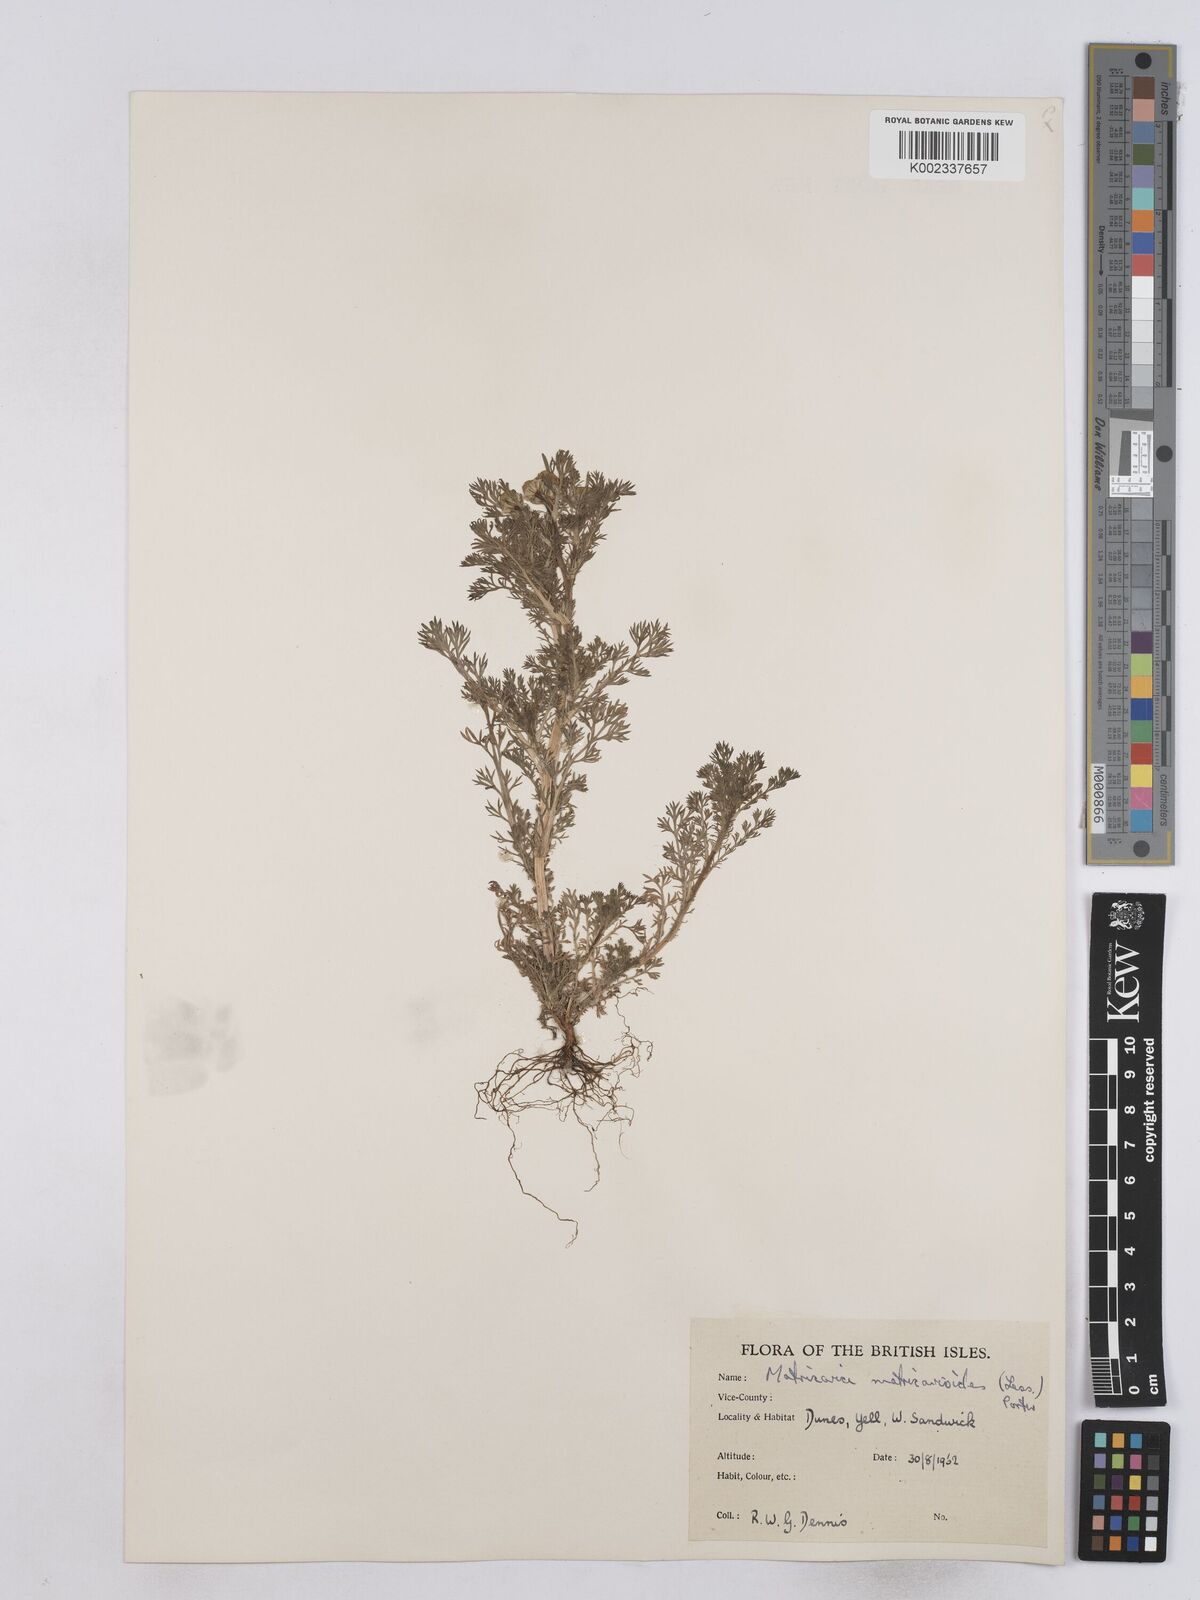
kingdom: Plantae
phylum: Tracheophyta
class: Magnoliopsida
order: Asterales
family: Asteraceae
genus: Matricaria
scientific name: Matricaria discoidea
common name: Disc mayweed
